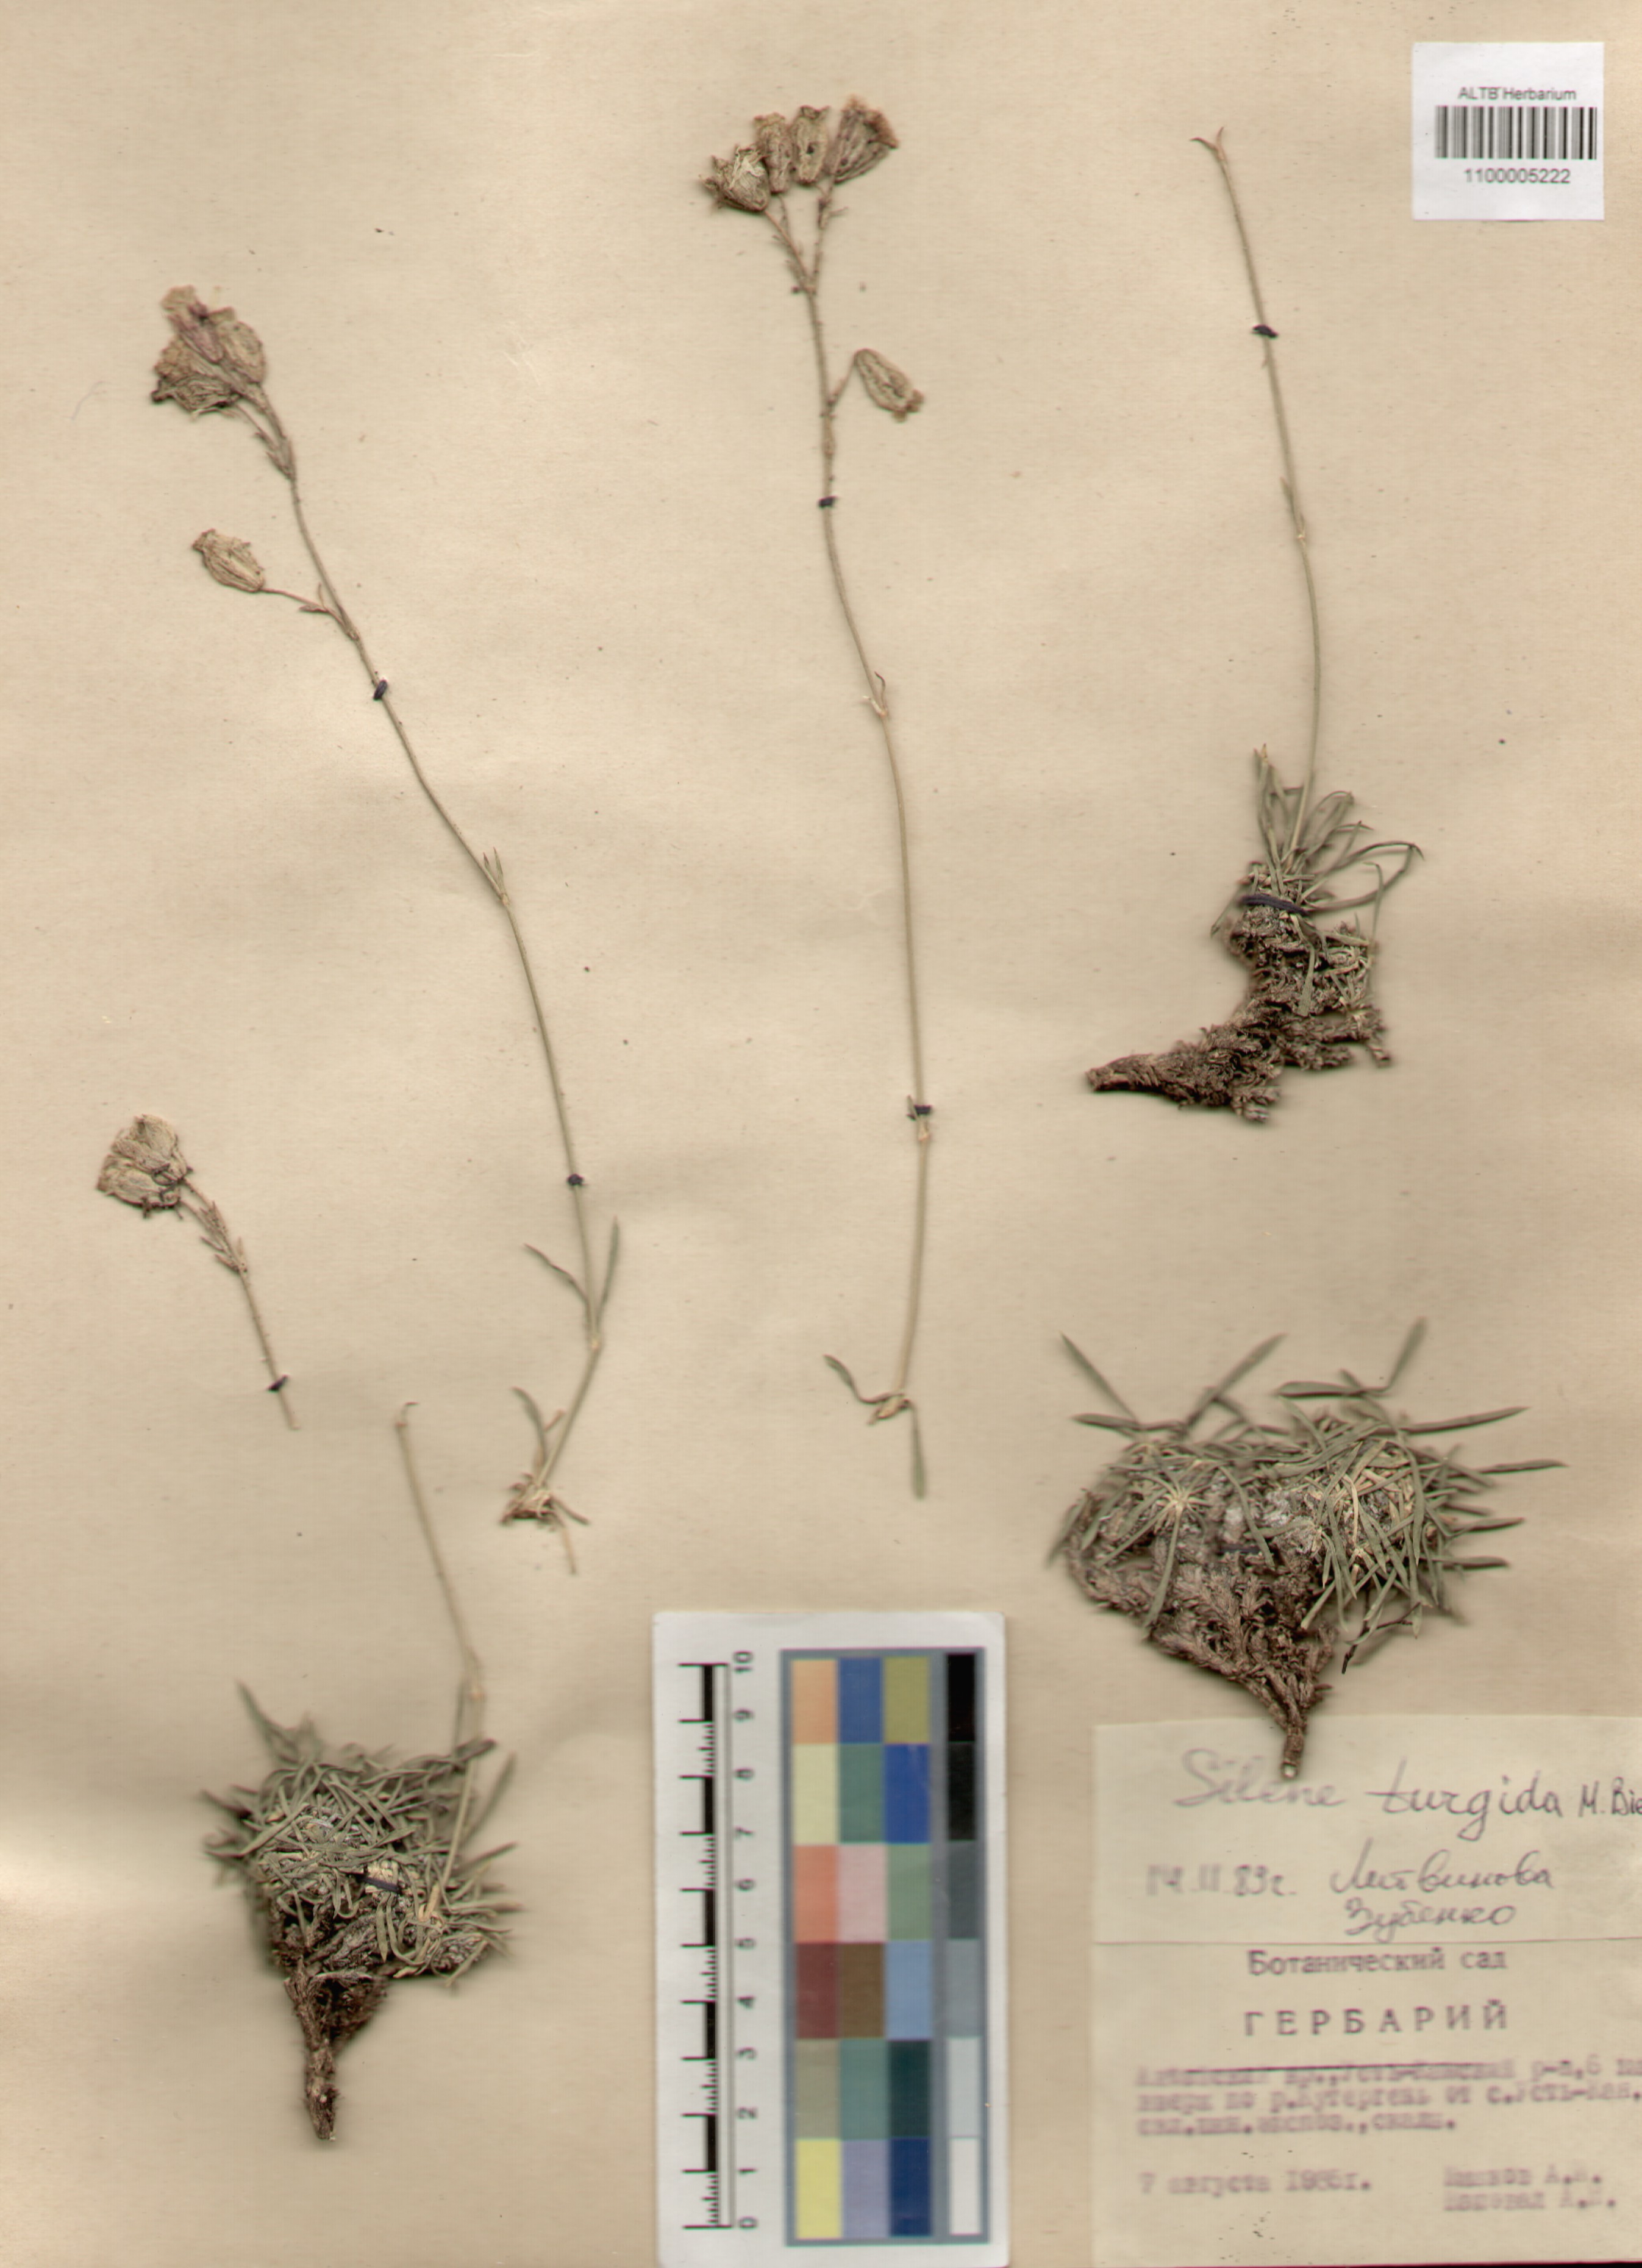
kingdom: Plantae
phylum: Tracheophyta
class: Magnoliopsida
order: Caryophyllales
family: Caryophyllaceae
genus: Silene
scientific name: Silene turgida
